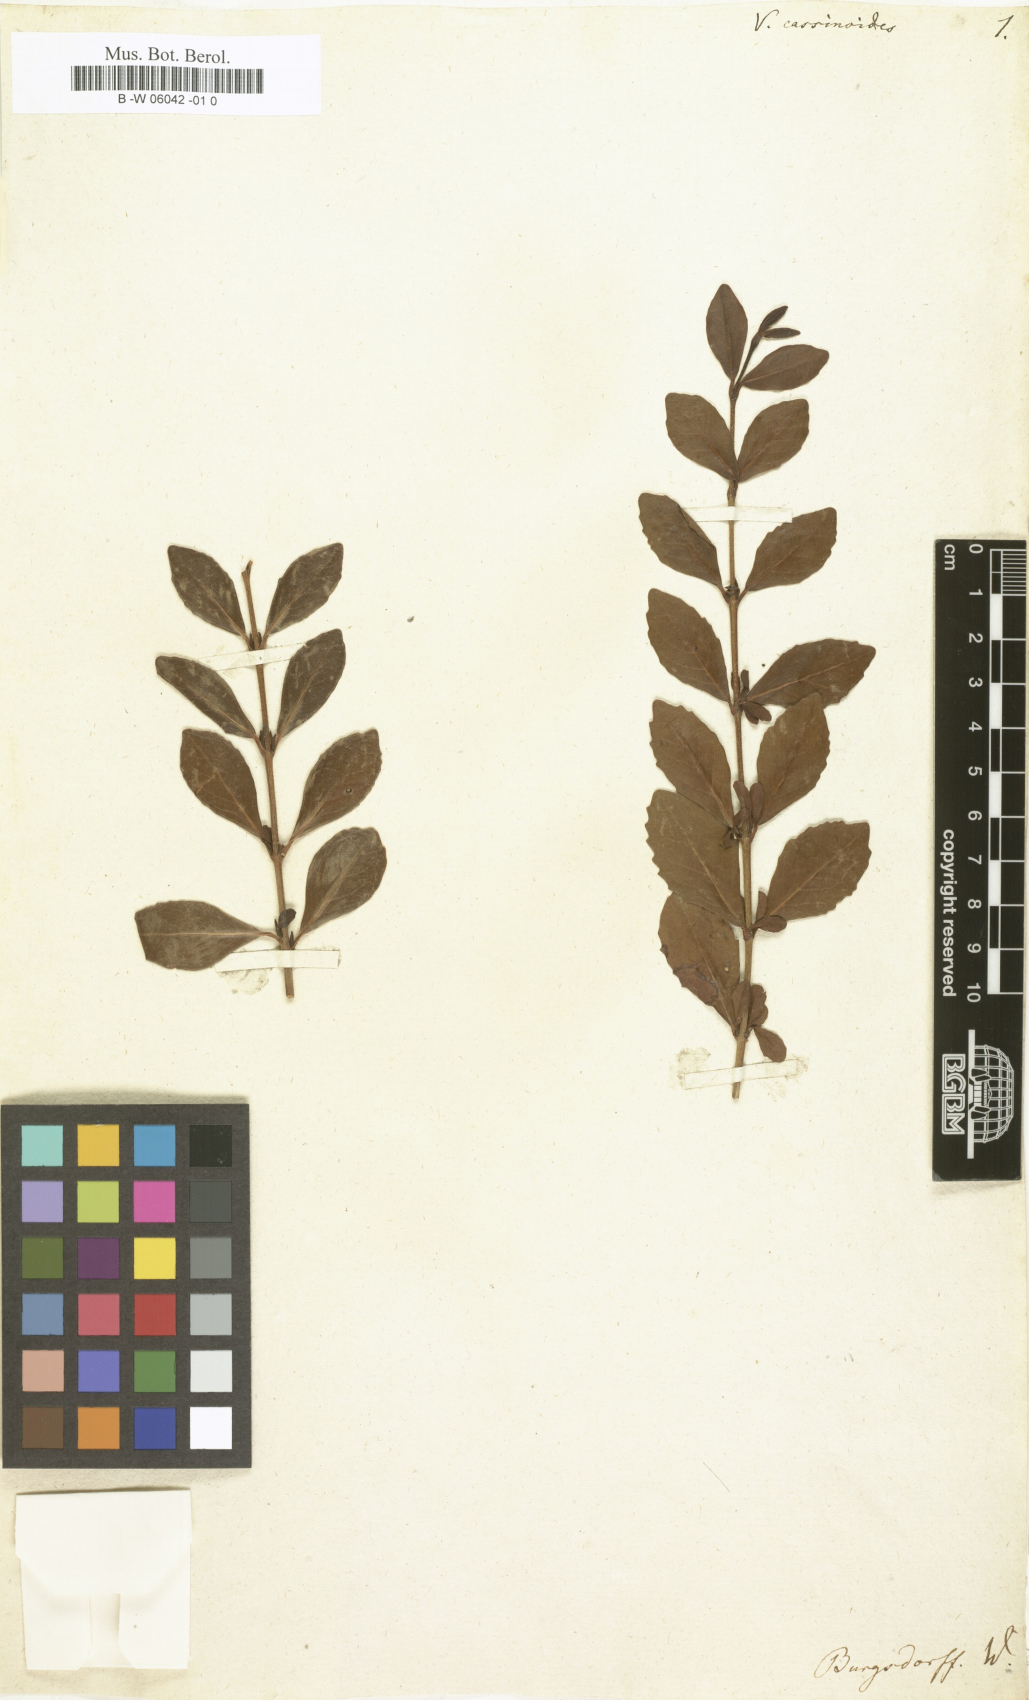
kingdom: Plantae
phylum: Tracheophyta
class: Magnoliopsida
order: Dipsacales
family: Viburnaceae
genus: Viburnum
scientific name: Viburnum cassinoides
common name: Swamp haw
